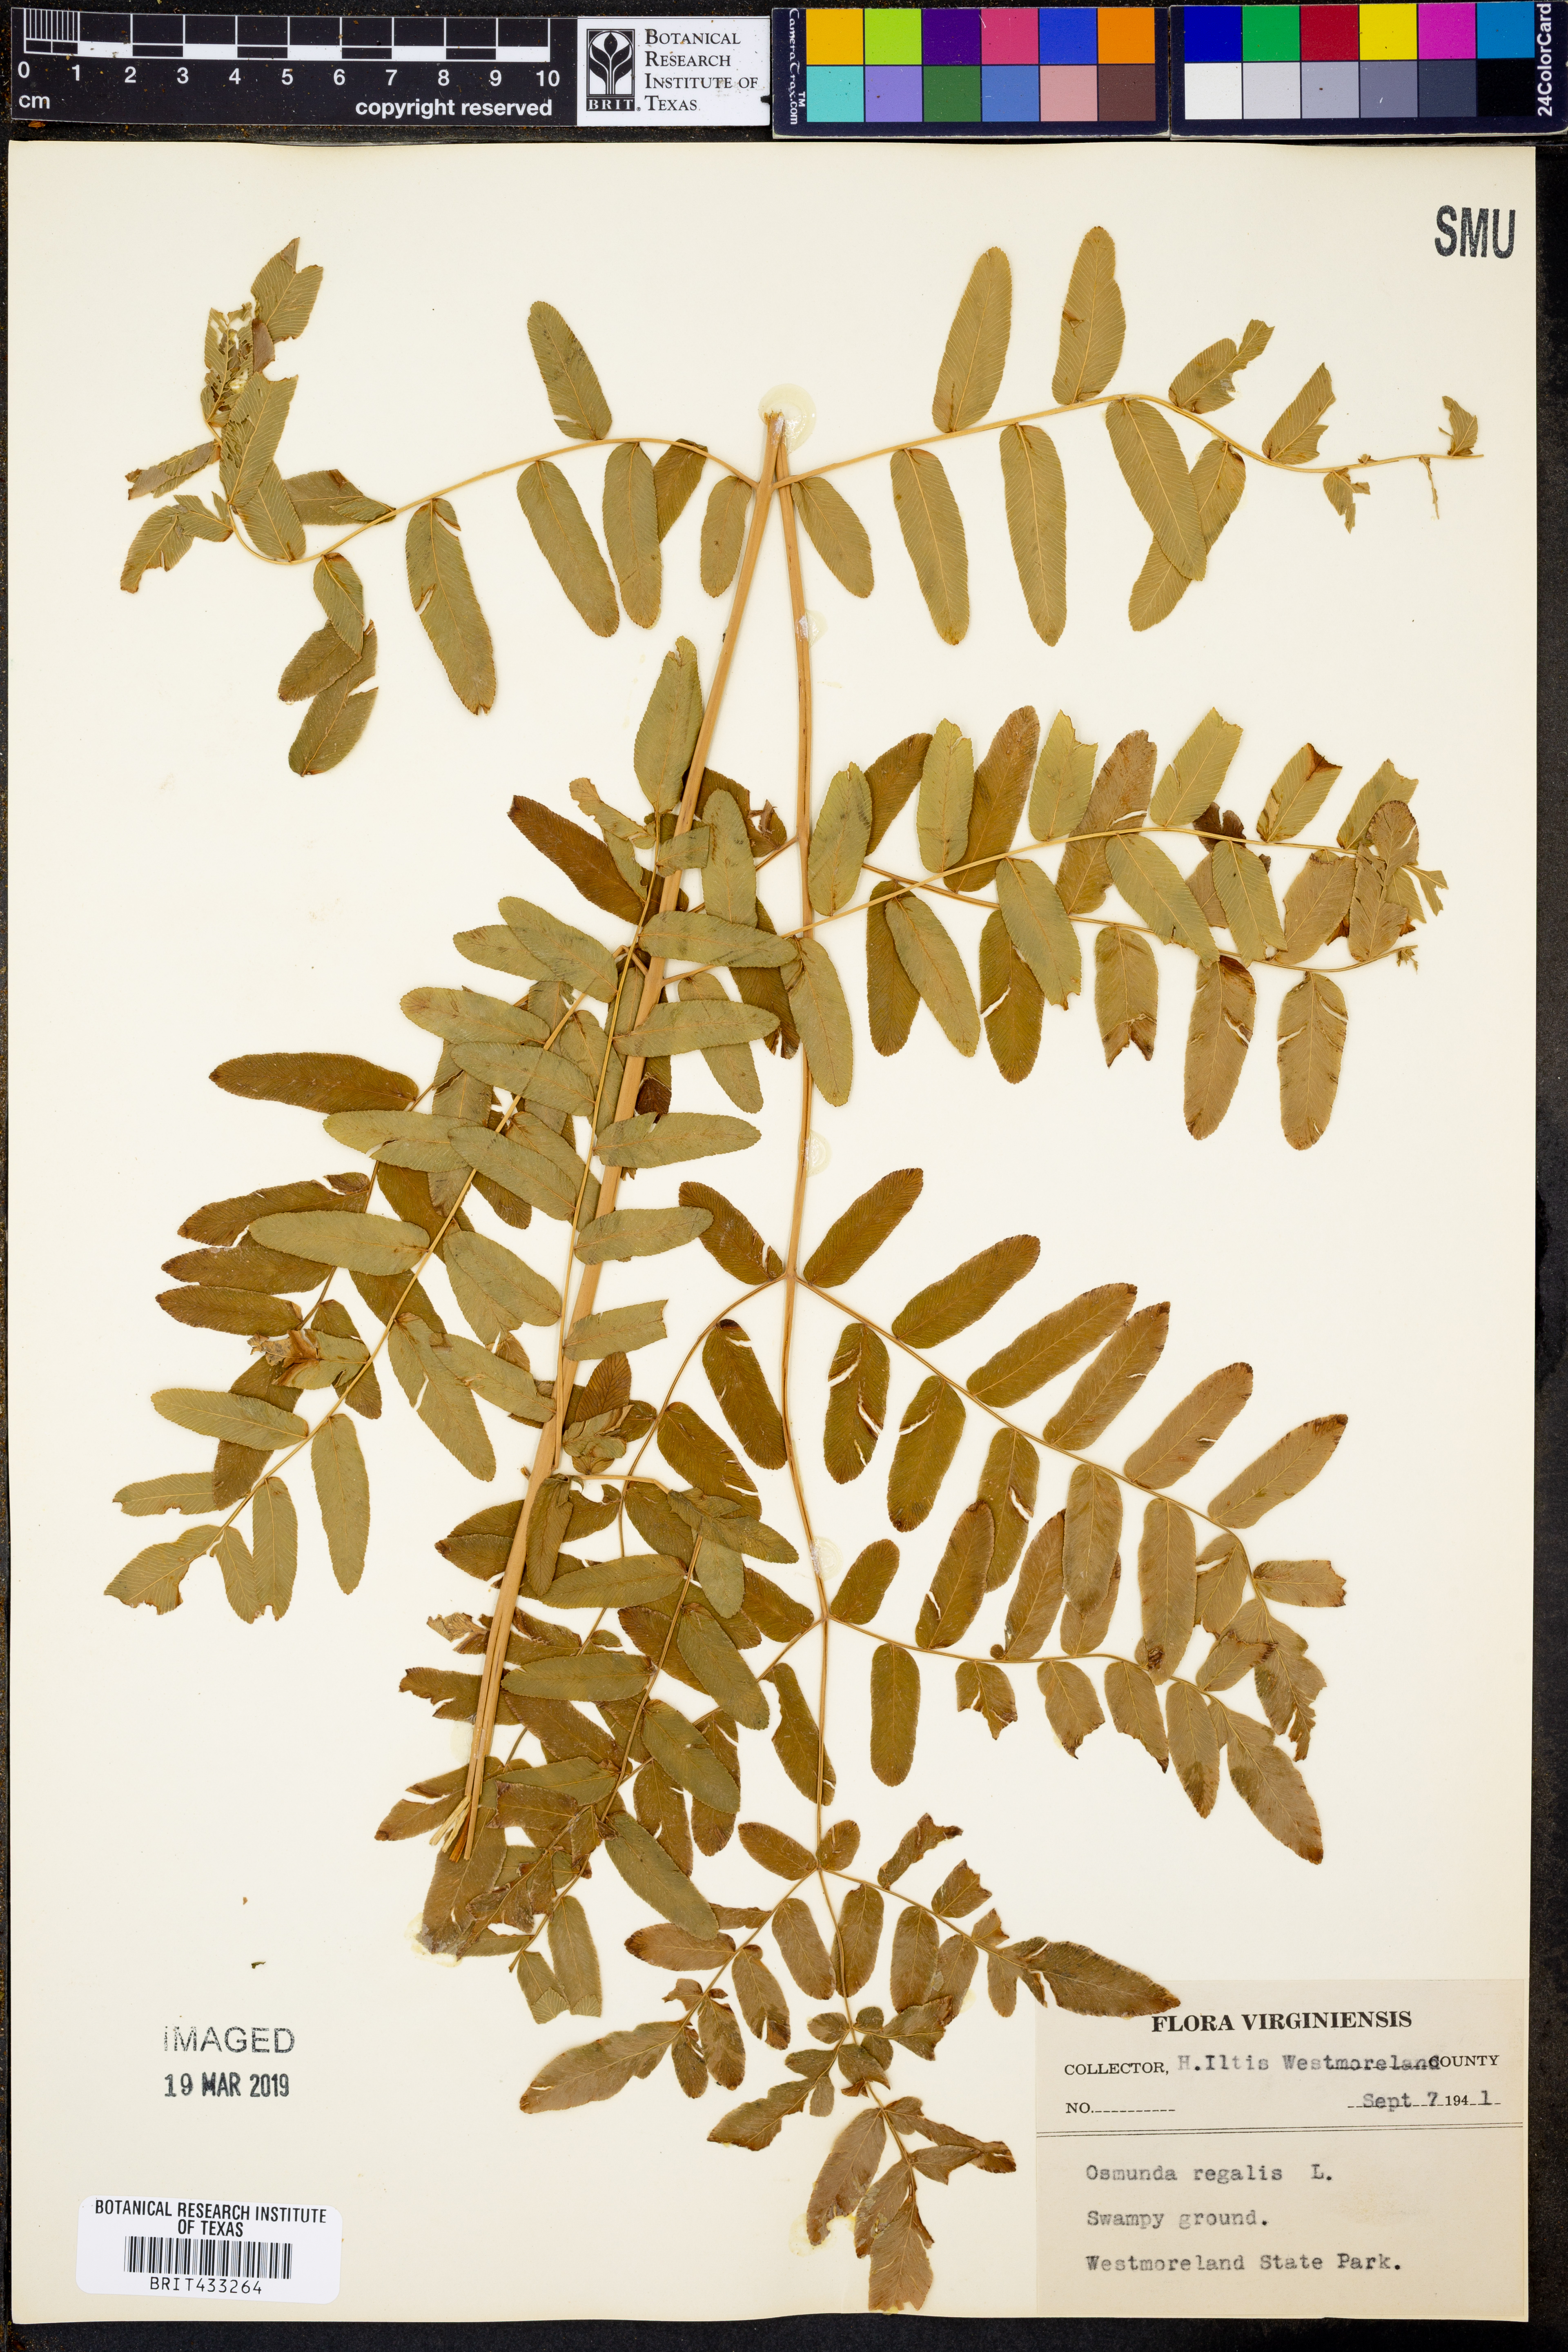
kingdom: Plantae
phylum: Tracheophyta
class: Polypodiopsida
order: Osmundales
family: Osmundaceae
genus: Osmunda
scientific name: Osmunda regalis
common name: Royal fern
